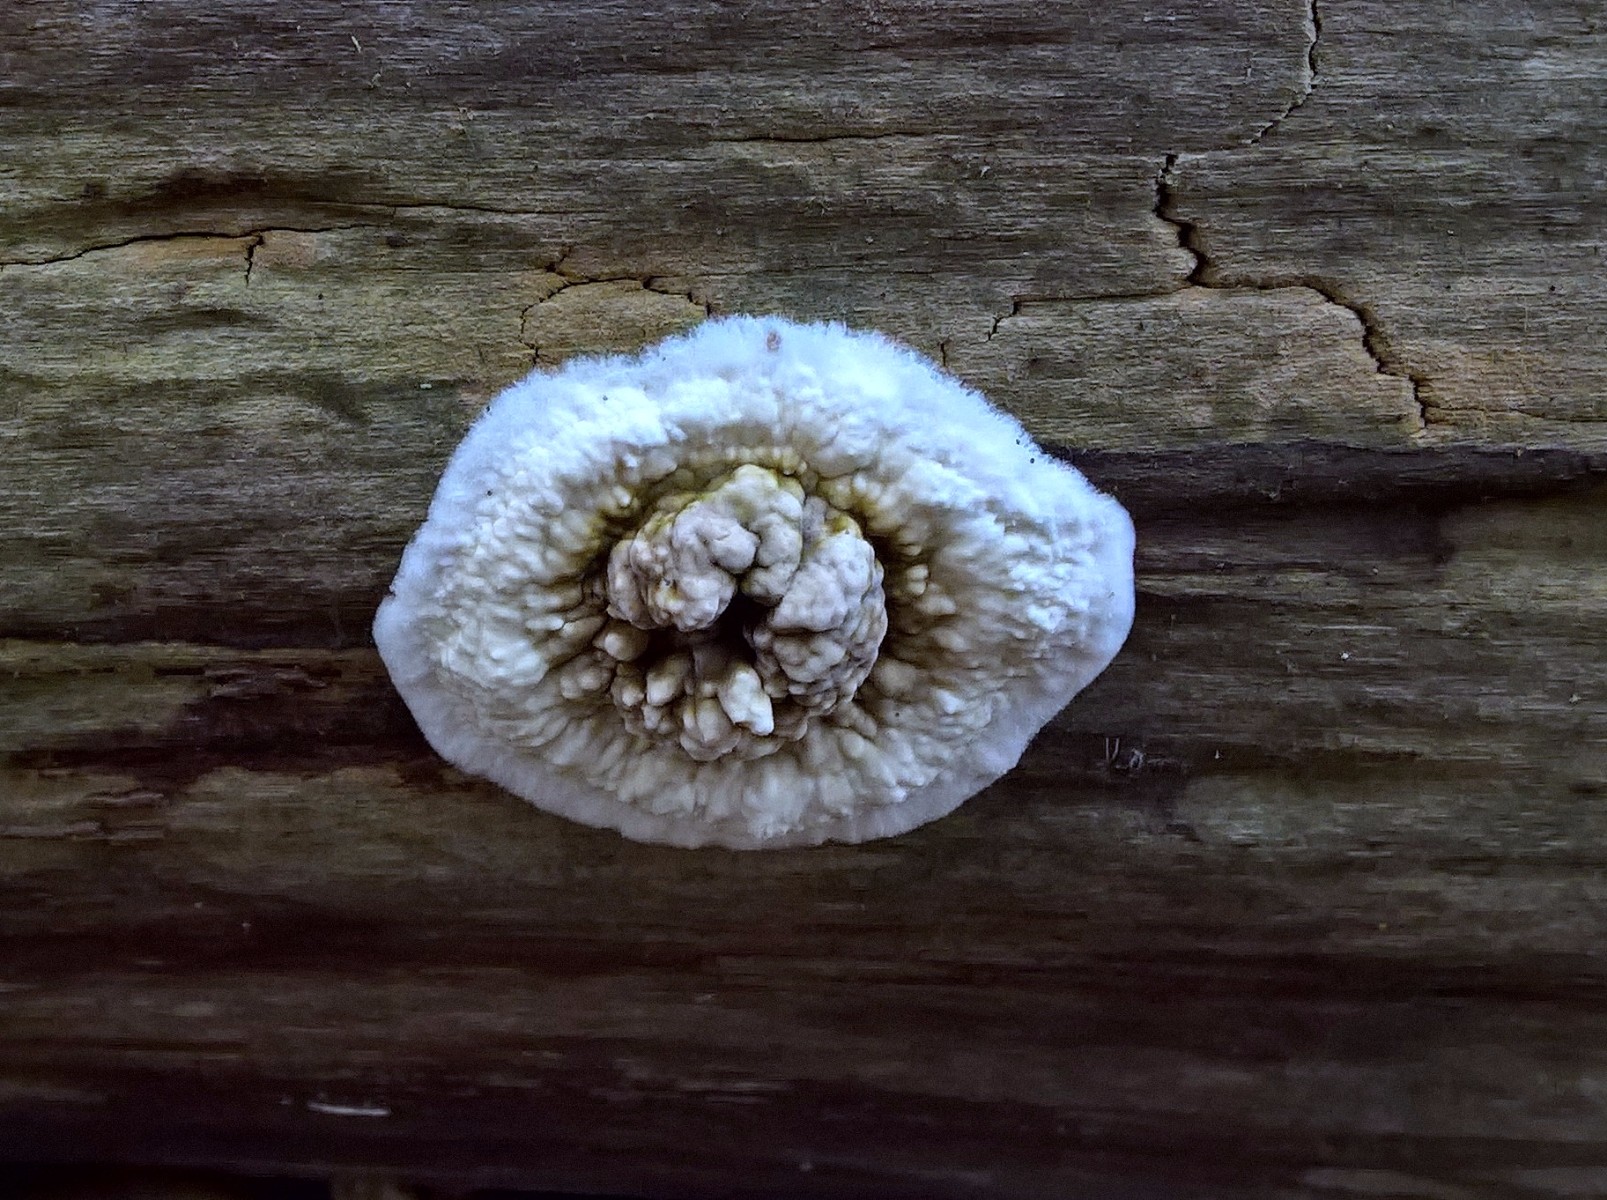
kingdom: Fungi
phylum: Basidiomycota
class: Agaricomycetes
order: Boletales
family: Coniophoraceae
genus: Coniophora
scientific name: Coniophora puteana
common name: gul tømmersvamp
